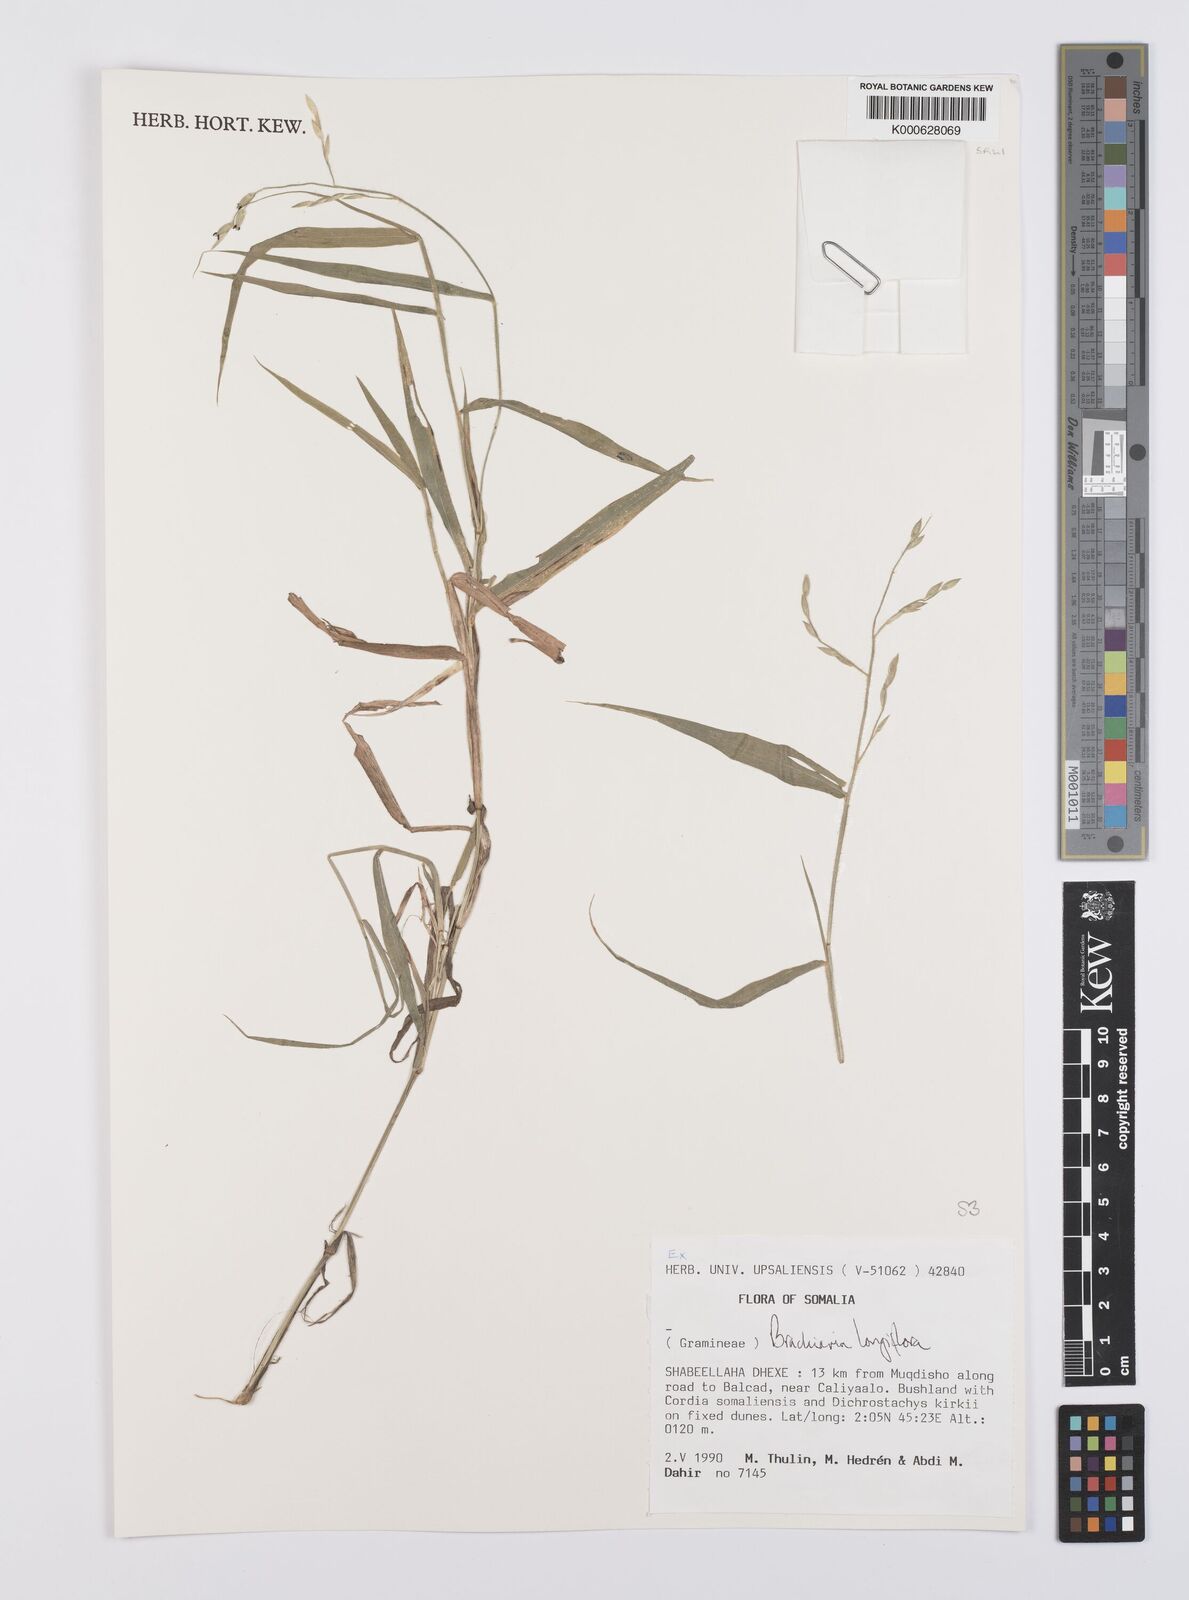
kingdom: Plantae
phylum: Tracheophyta
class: Liliopsida
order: Poales
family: Poaceae
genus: Urochloa
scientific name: Urochloa Brachiaria longiflora
